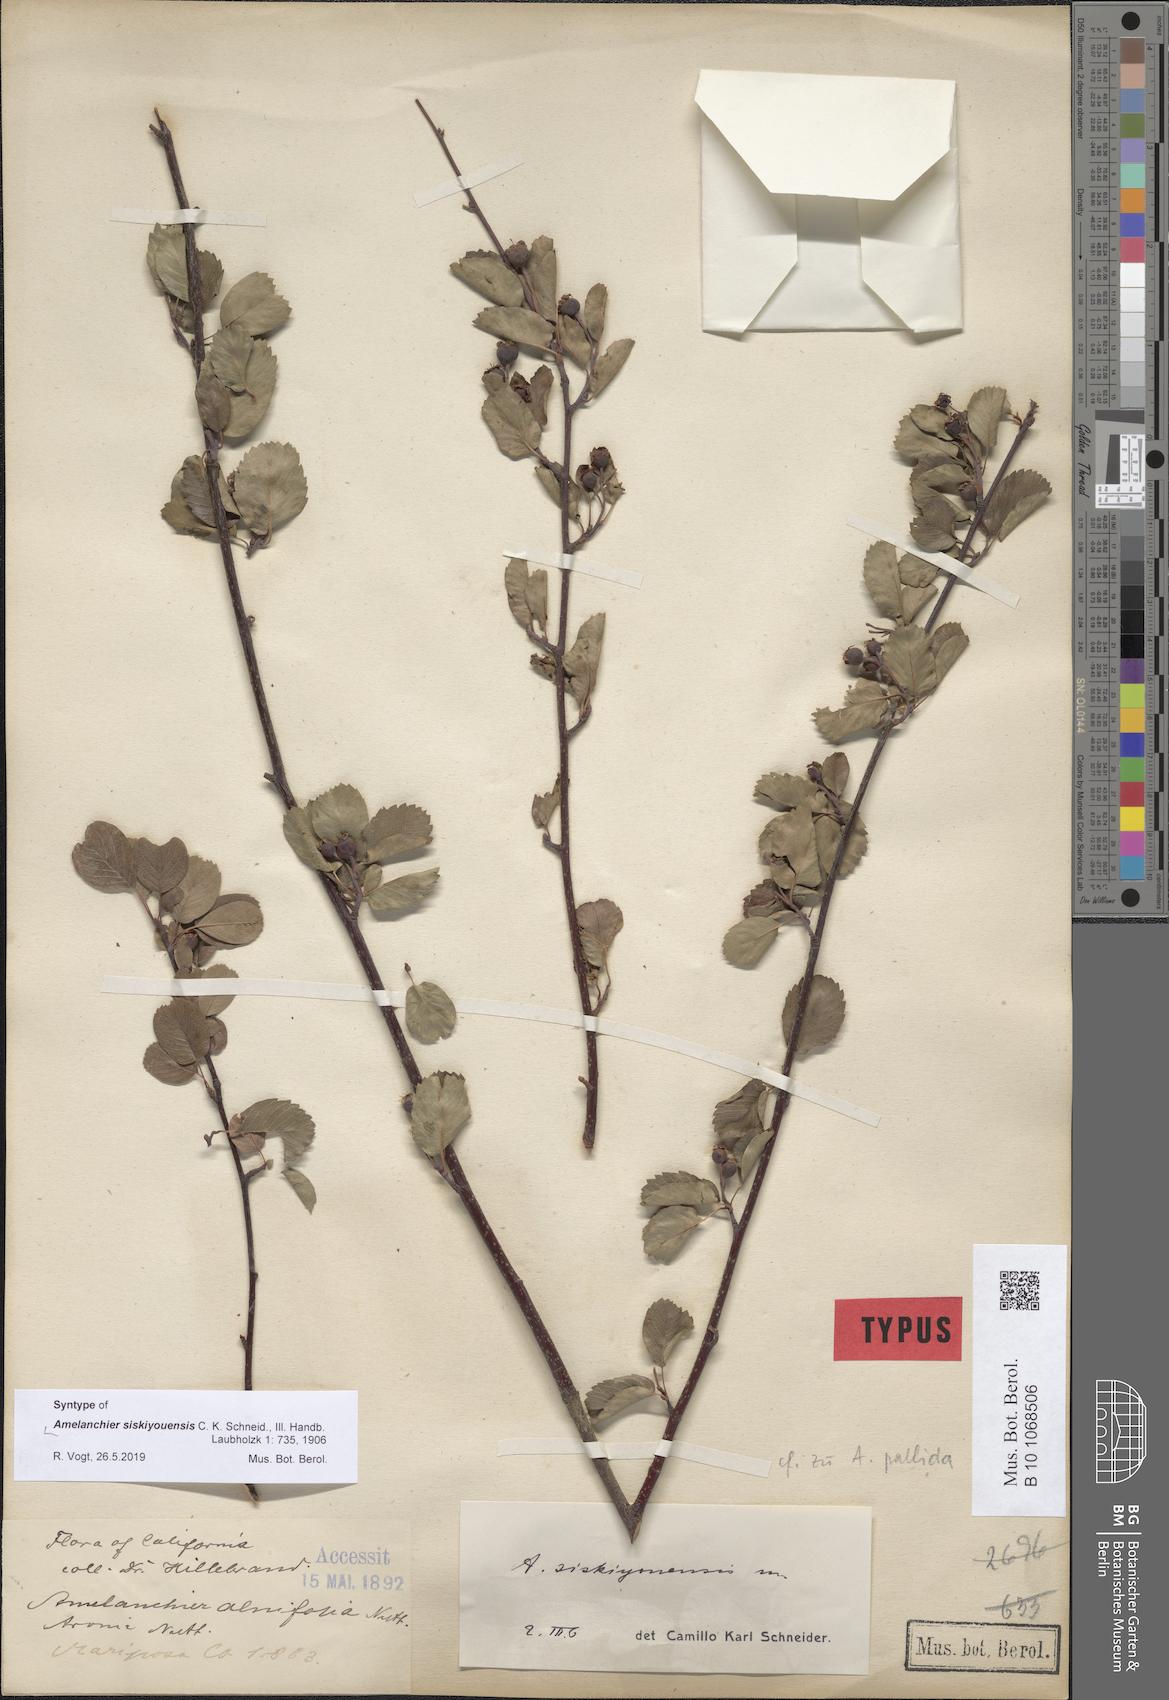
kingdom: Plantae
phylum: Tracheophyta
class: Magnoliopsida
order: Rosales
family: Rosaceae
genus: Amelanchier
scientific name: Amelanchier alnifolia
